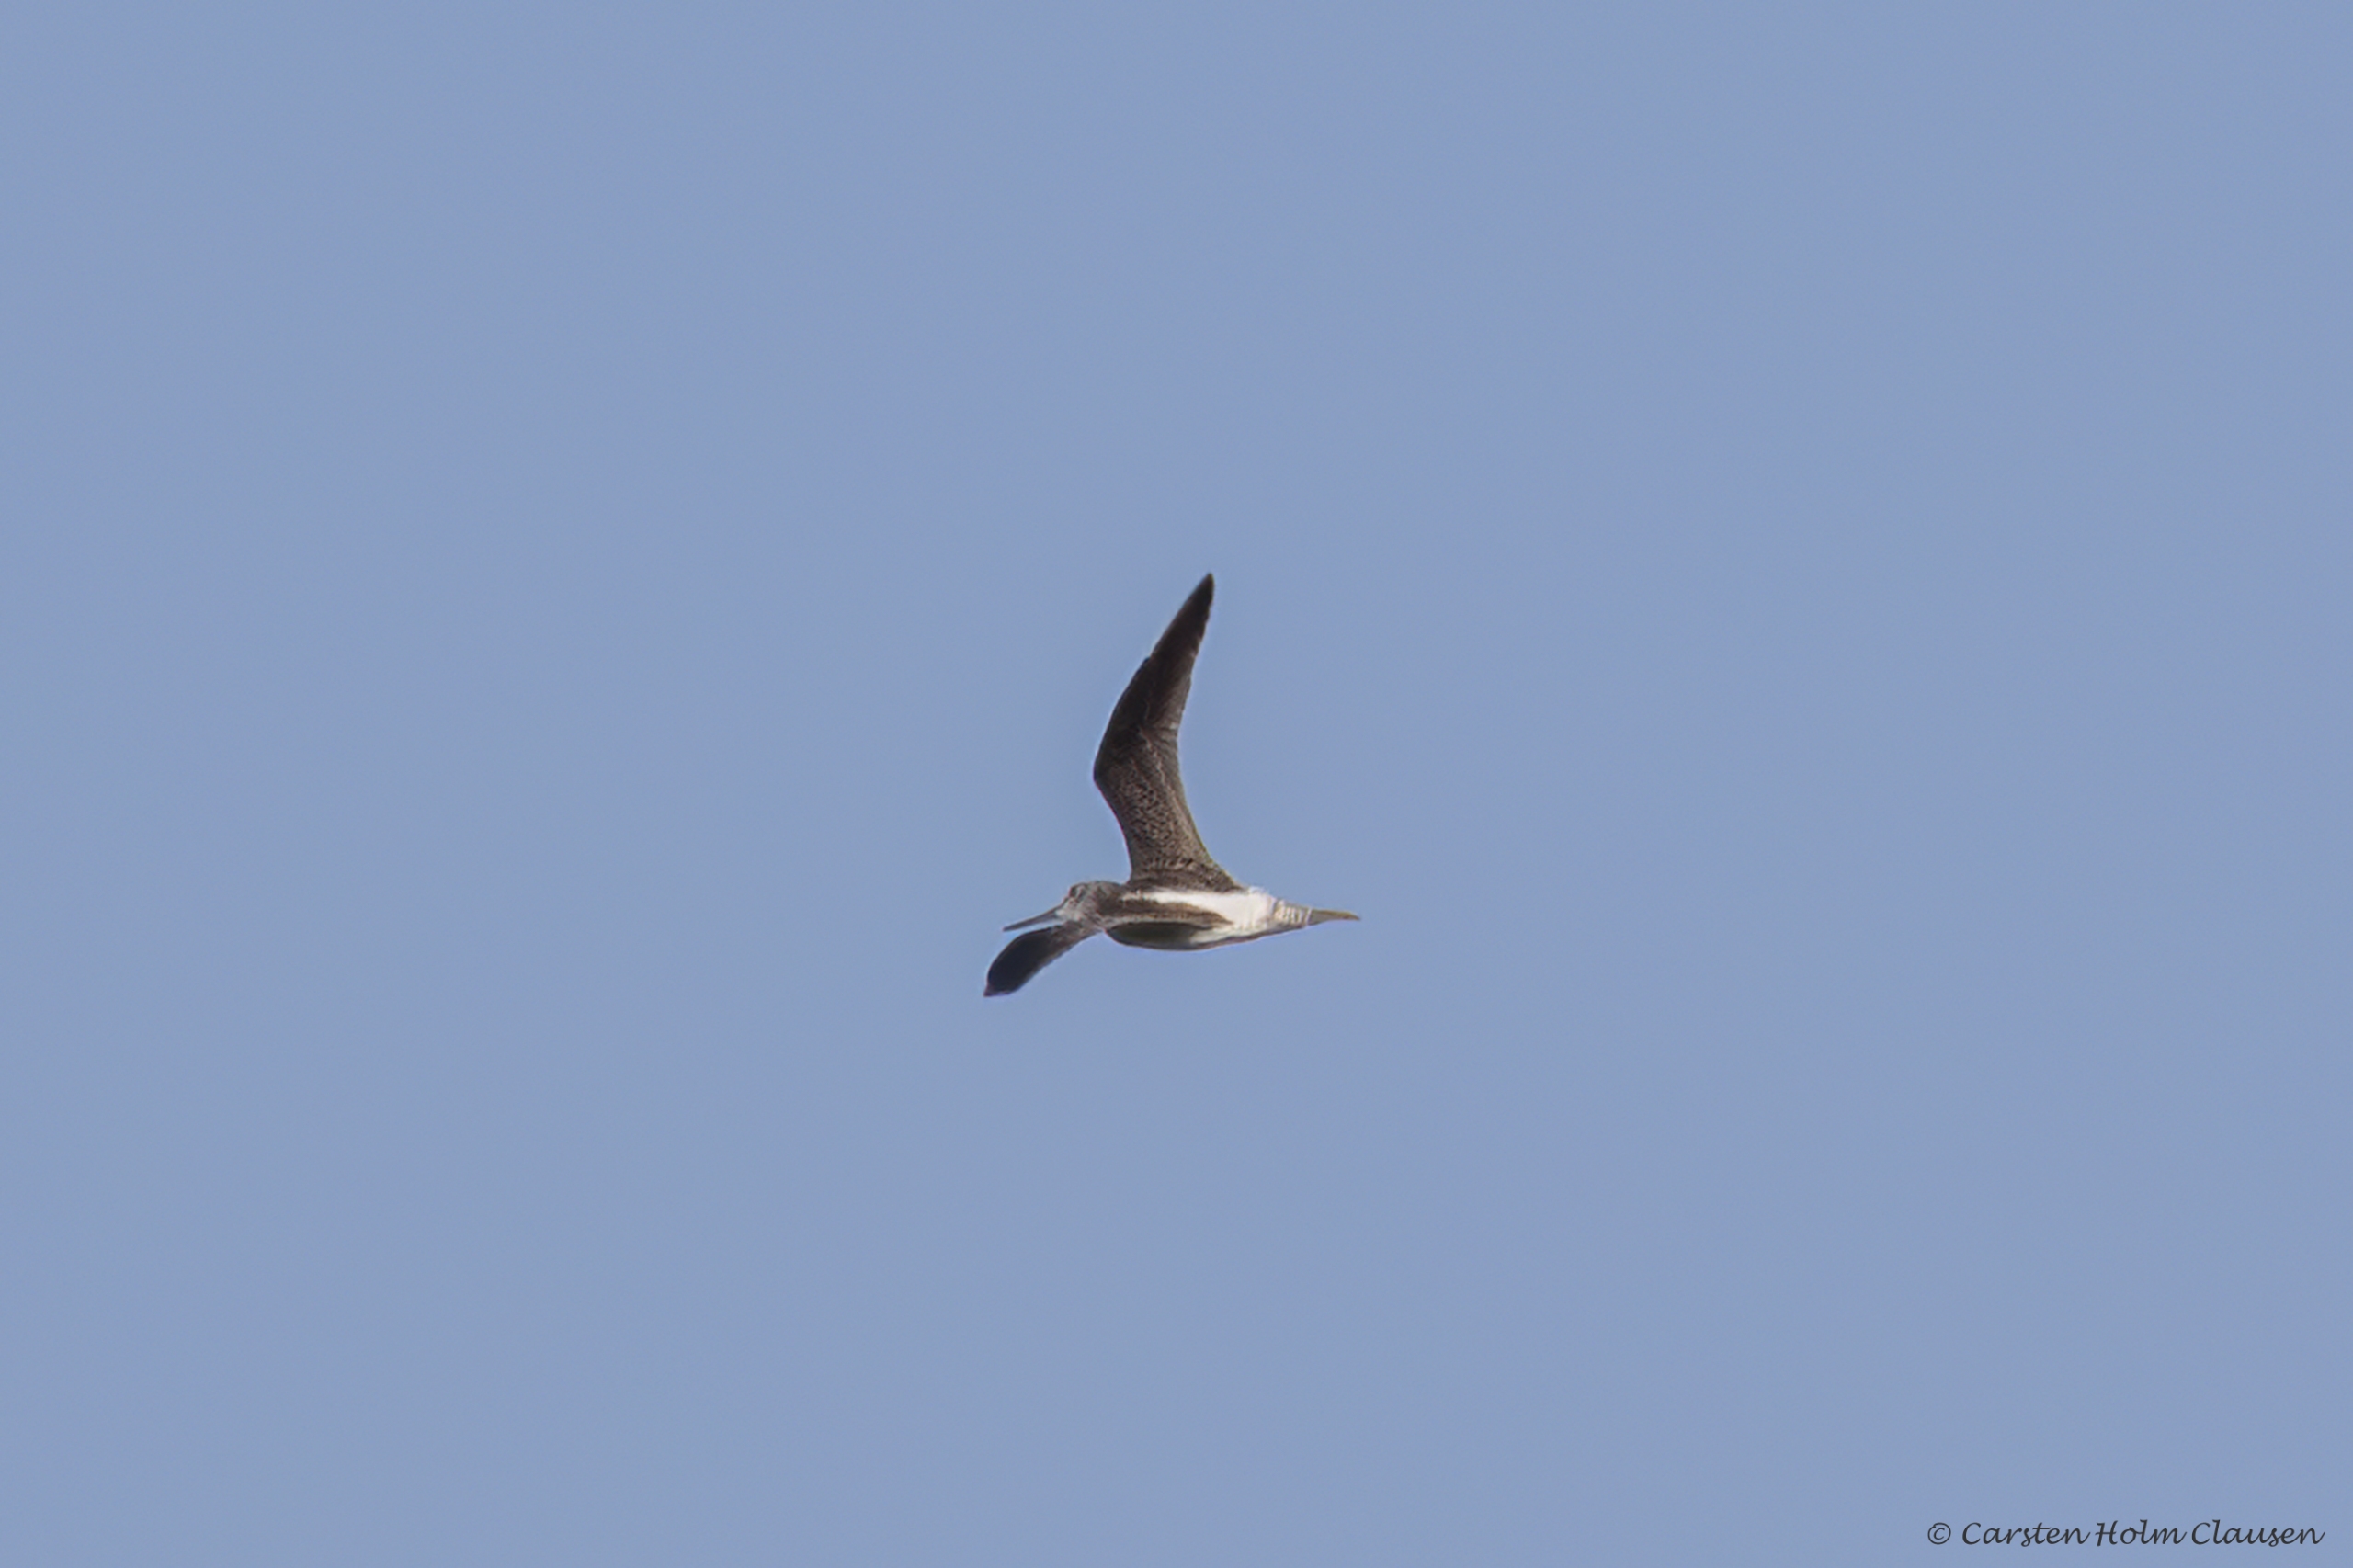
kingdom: Animalia
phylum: Chordata
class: Aves
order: Charadriiformes
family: Scolopacidae
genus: Tringa
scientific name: Tringa nebularia
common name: Hvidklire
